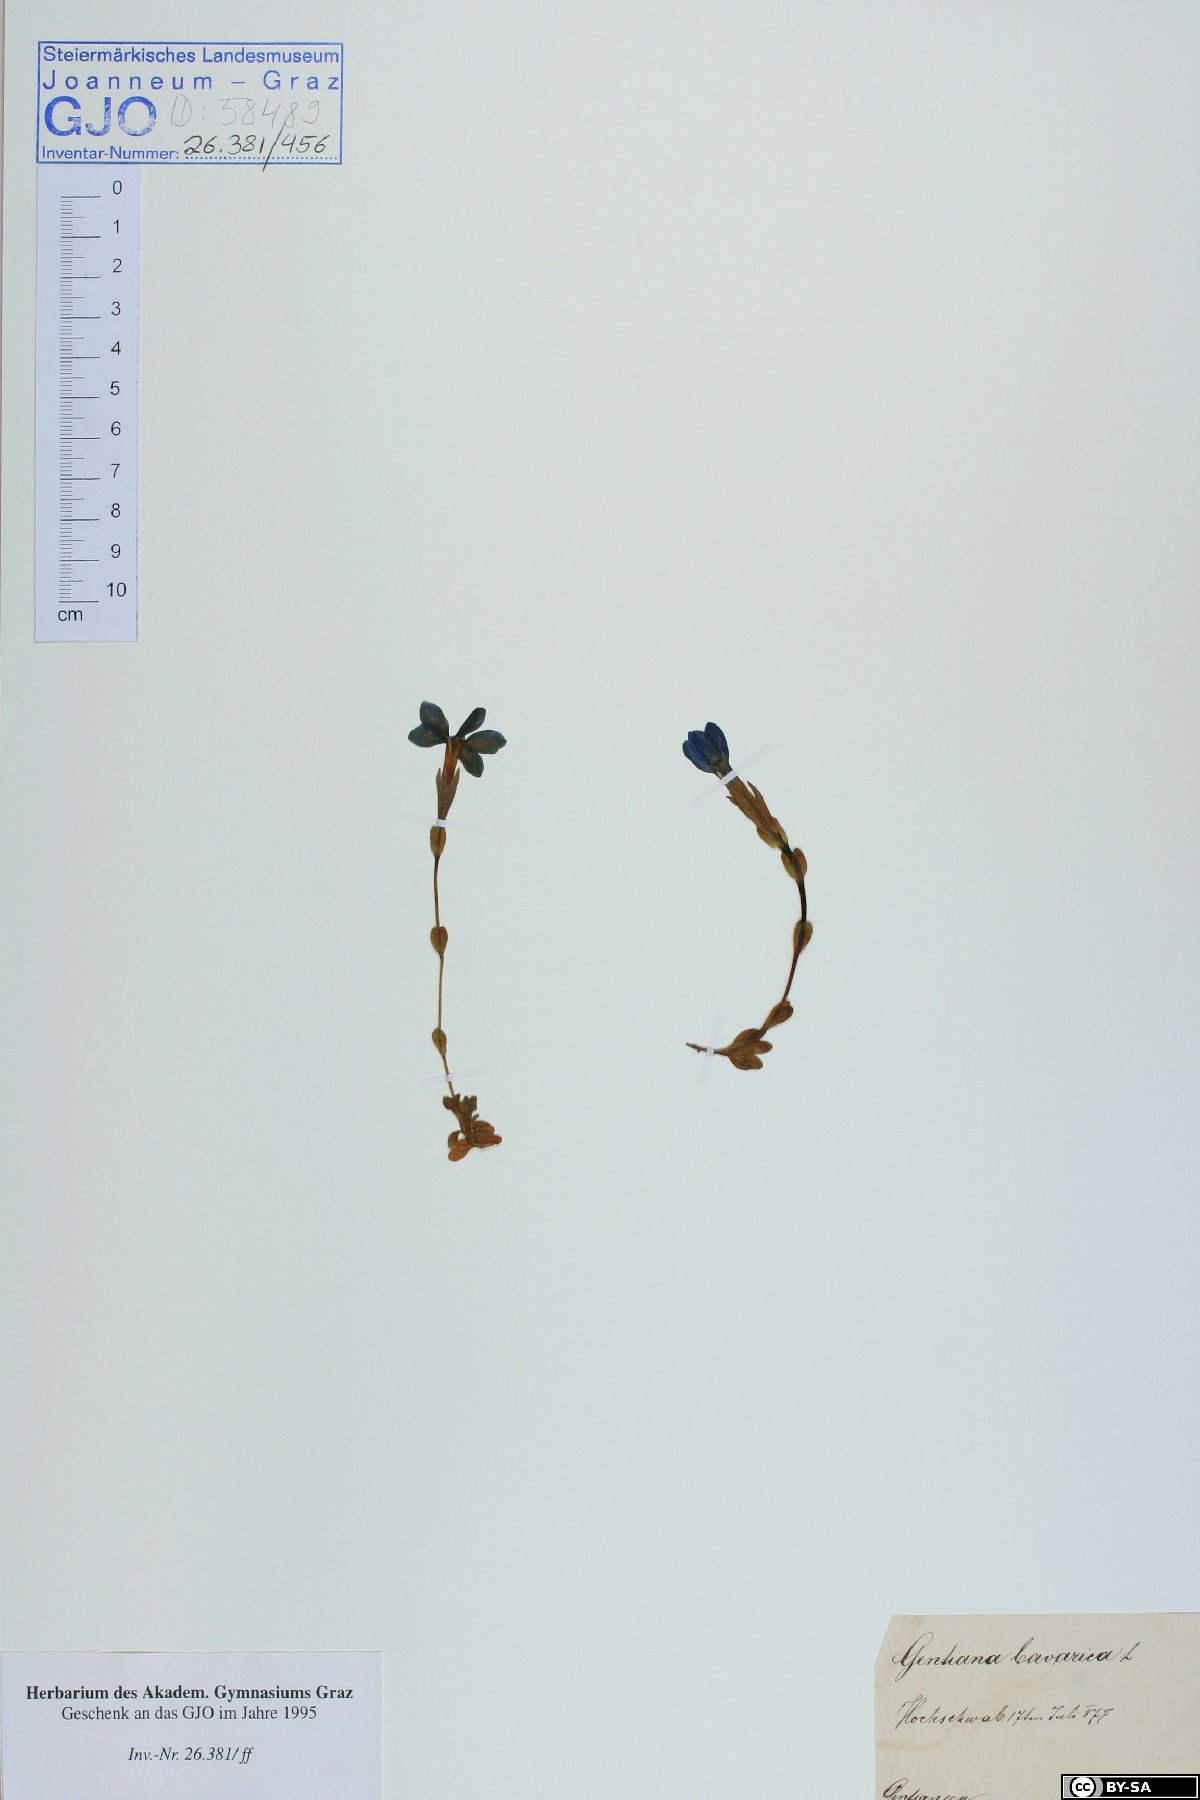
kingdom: Plantae
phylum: Tracheophyta
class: Magnoliopsida
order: Gentianales
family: Gentianaceae
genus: Gentiana
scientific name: Gentiana bavarica
